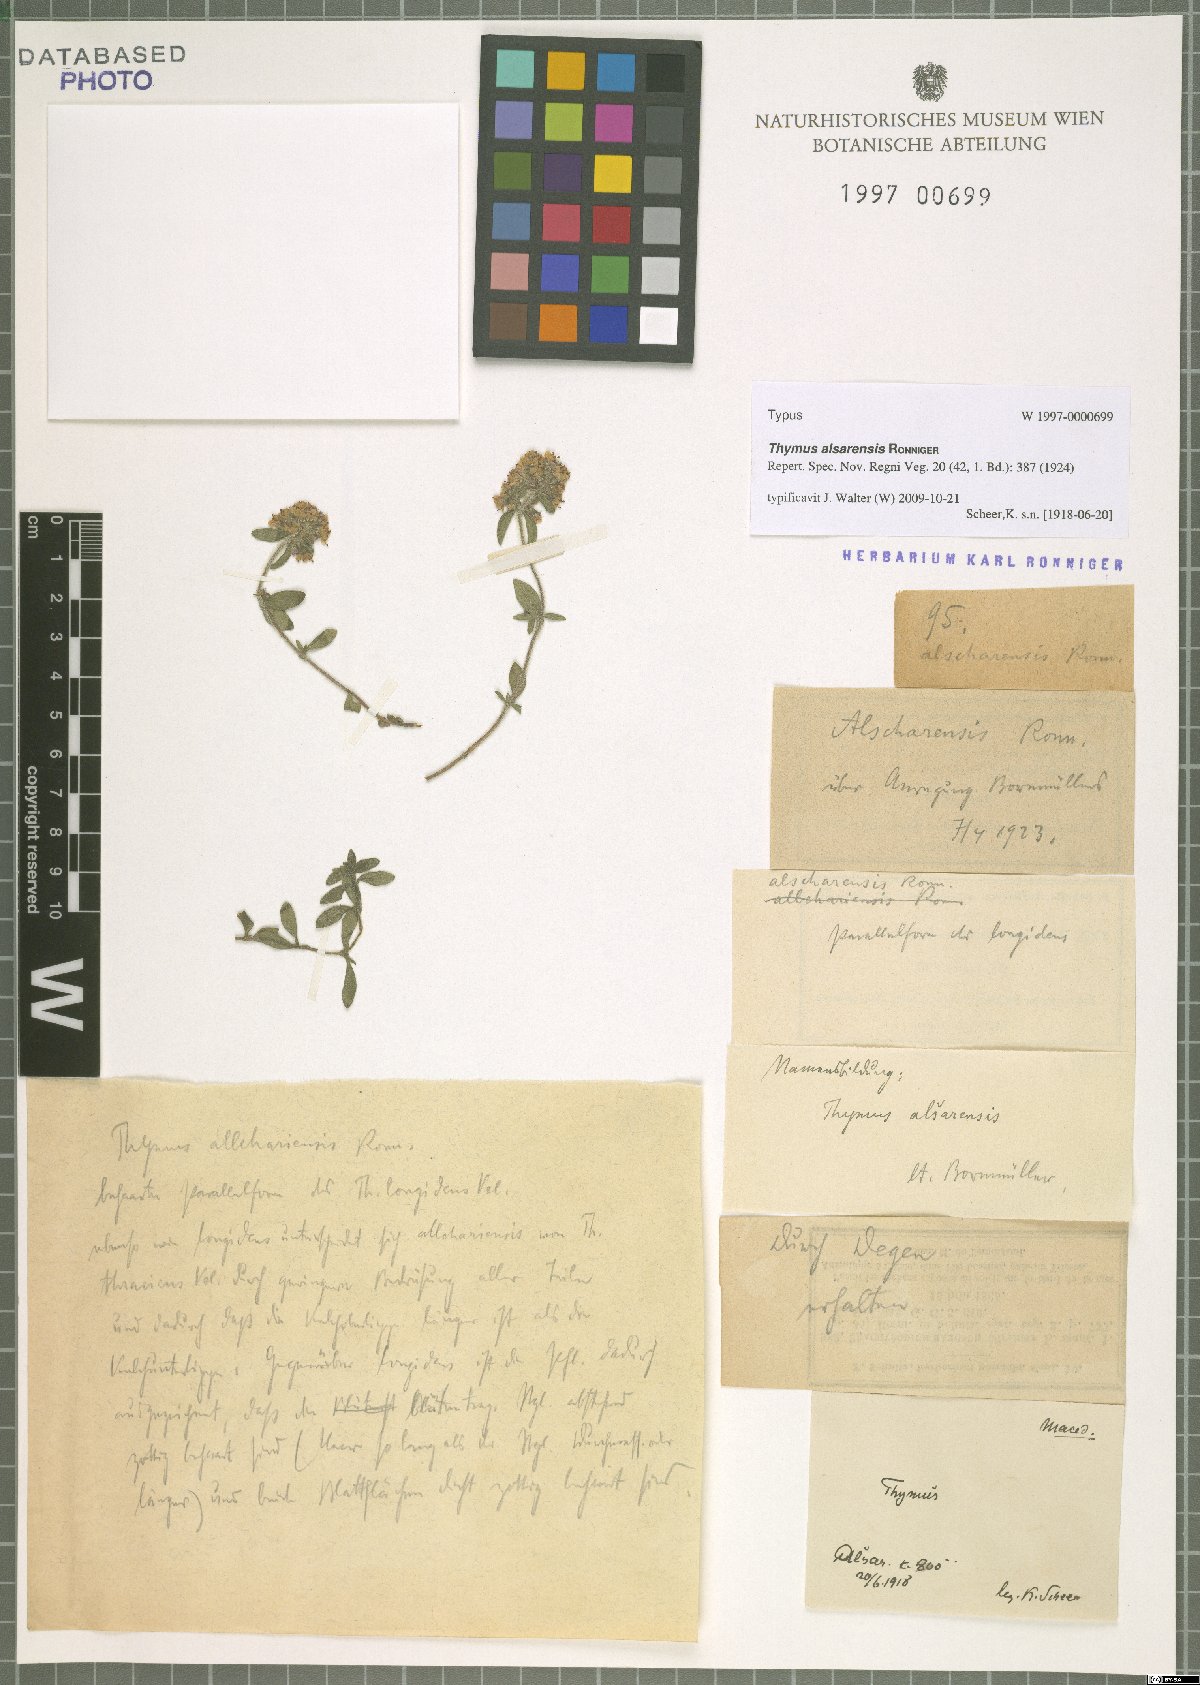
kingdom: Plantae
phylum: Tracheophyta
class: Magnoliopsida
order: Lamiales
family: Lamiaceae
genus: Thymus
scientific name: Thymus thracicus
